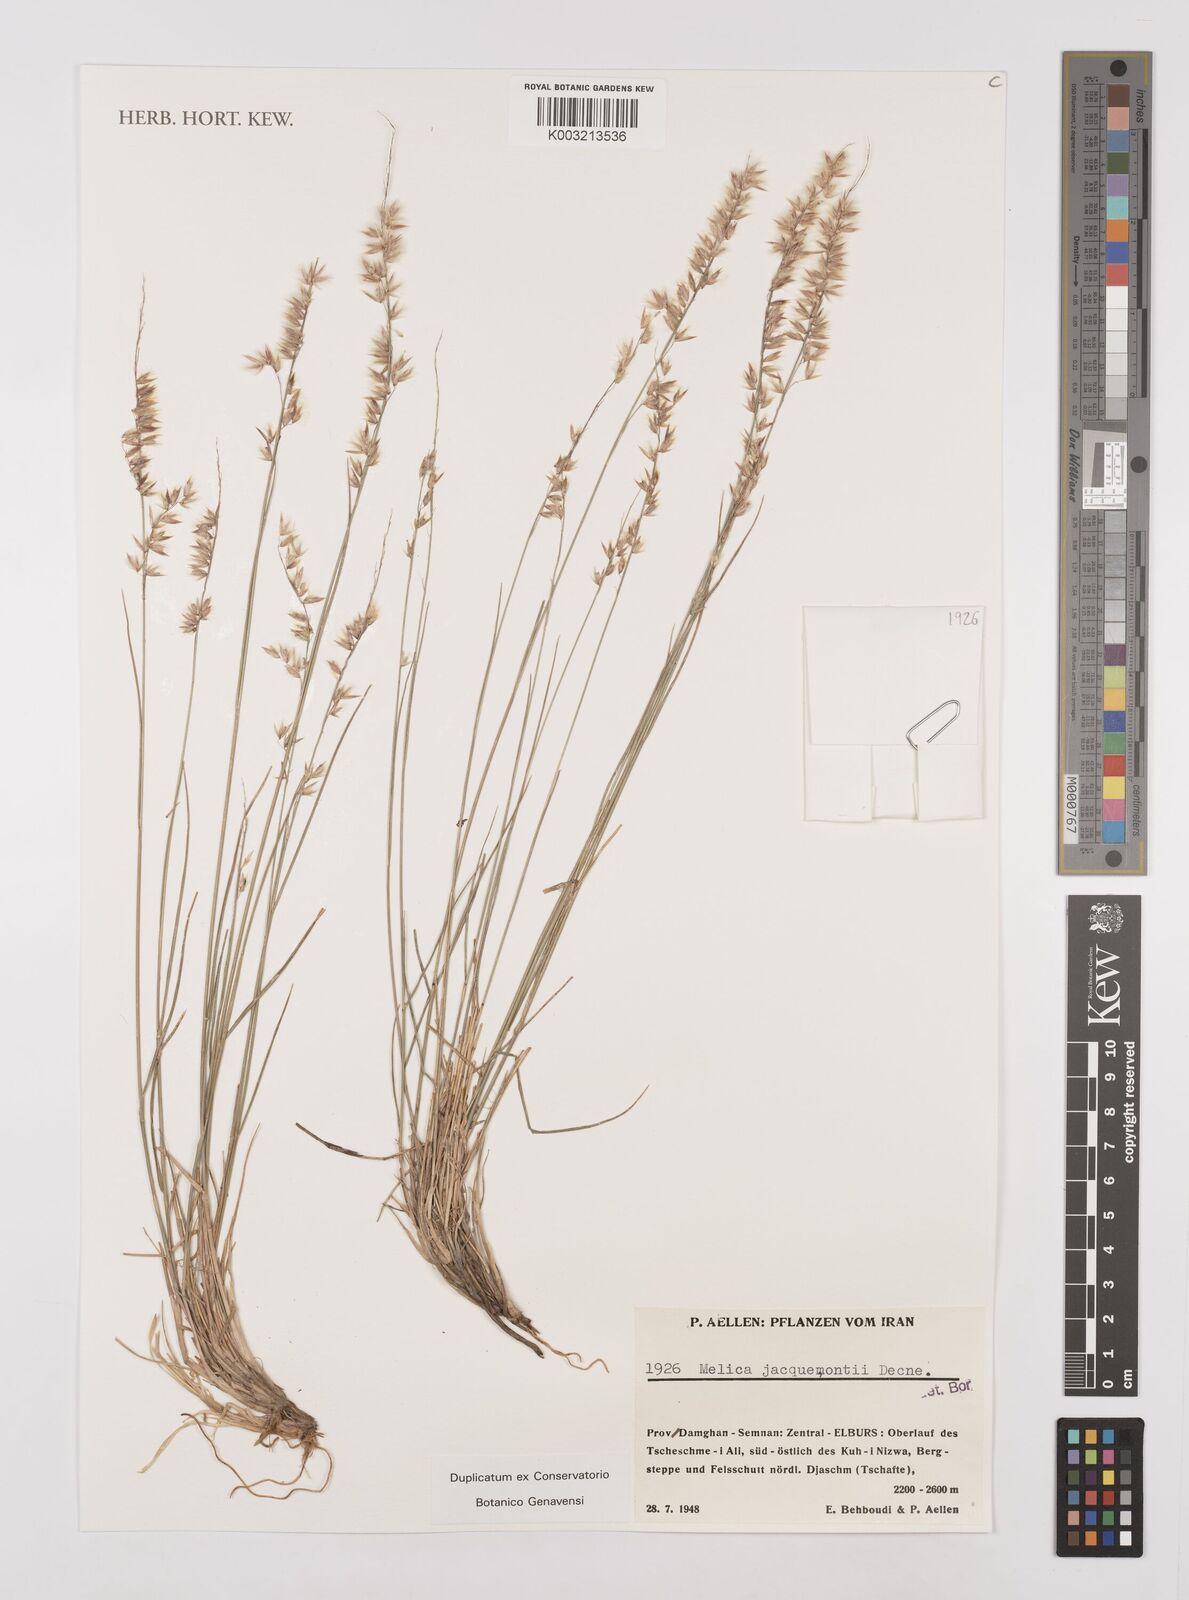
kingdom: Plantae
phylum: Tracheophyta
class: Liliopsida
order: Poales
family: Poaceae
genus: Melica
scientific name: Melica persica
